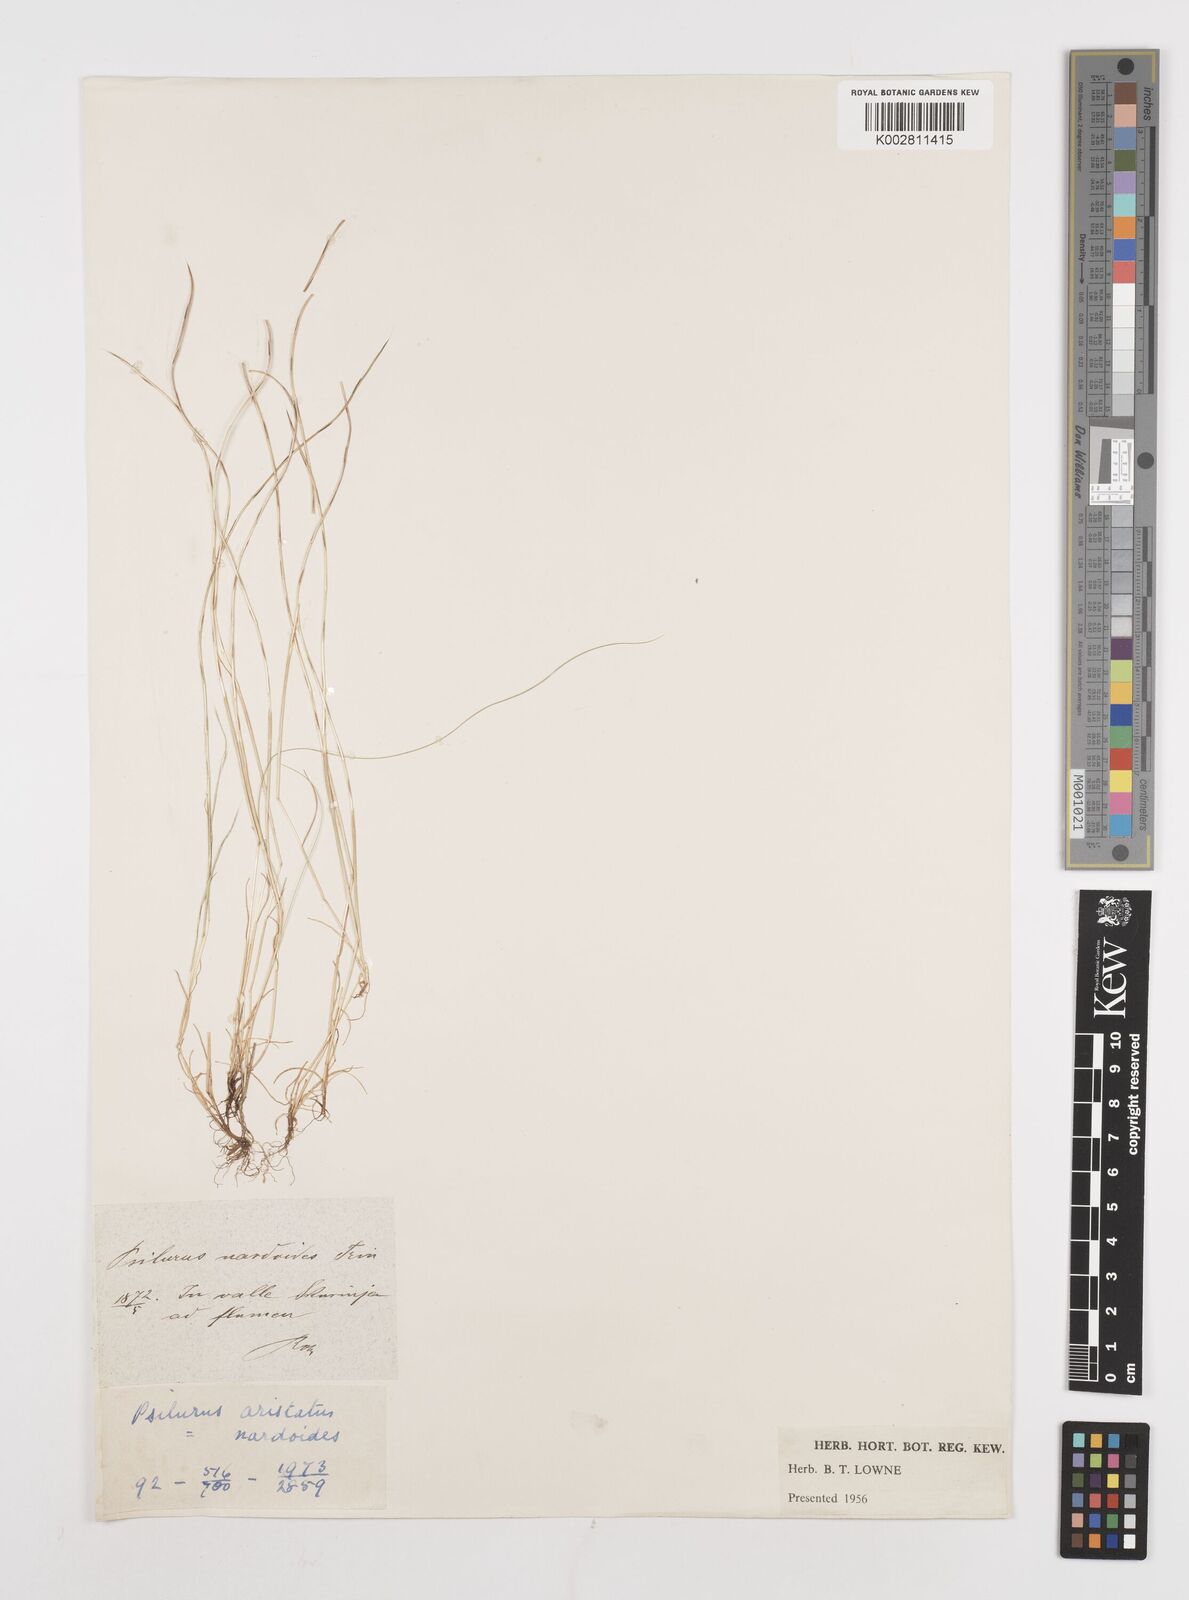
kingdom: Plantae
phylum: Tracheophyta
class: Liliopsida
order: Poales
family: Poaceae
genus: Festuca
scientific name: Festuca incurva
